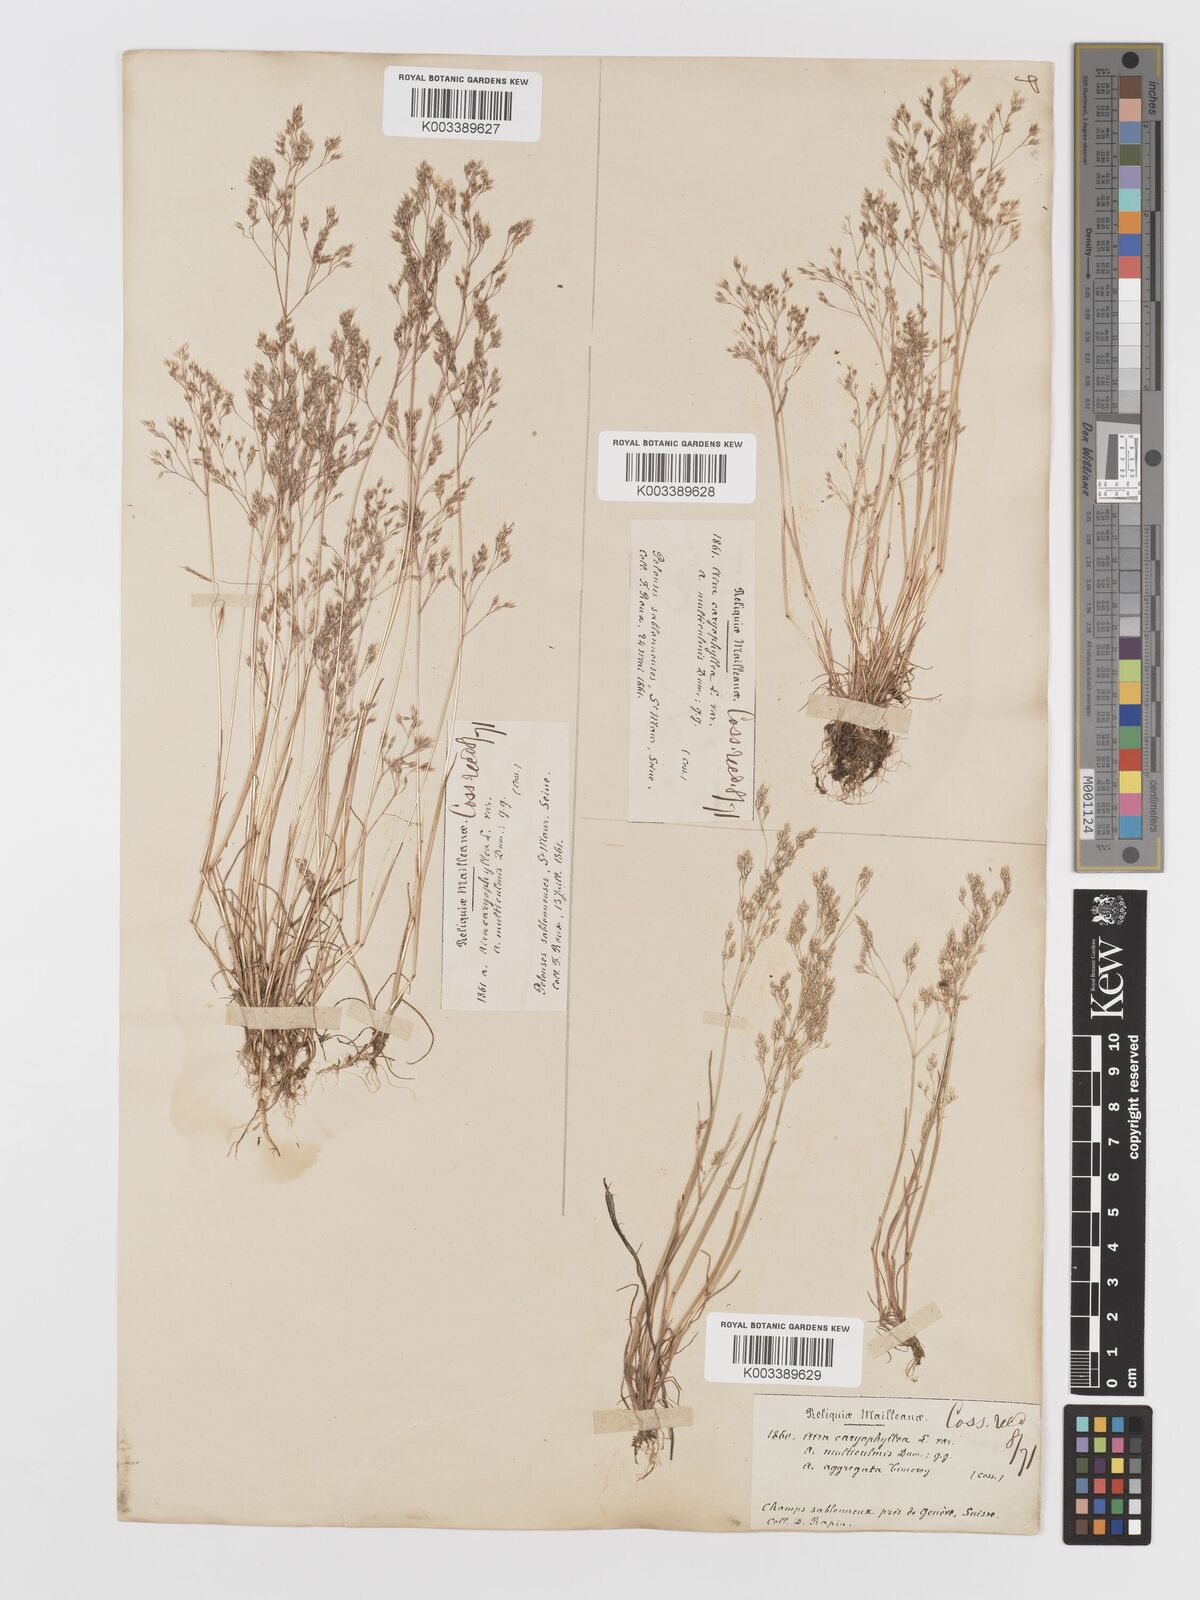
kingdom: Plantae
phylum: Tracheophyta
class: Liliopsida
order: Poales
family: Poaceae
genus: Aira
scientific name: Aira caryophyllea
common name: Silver hairgrass
